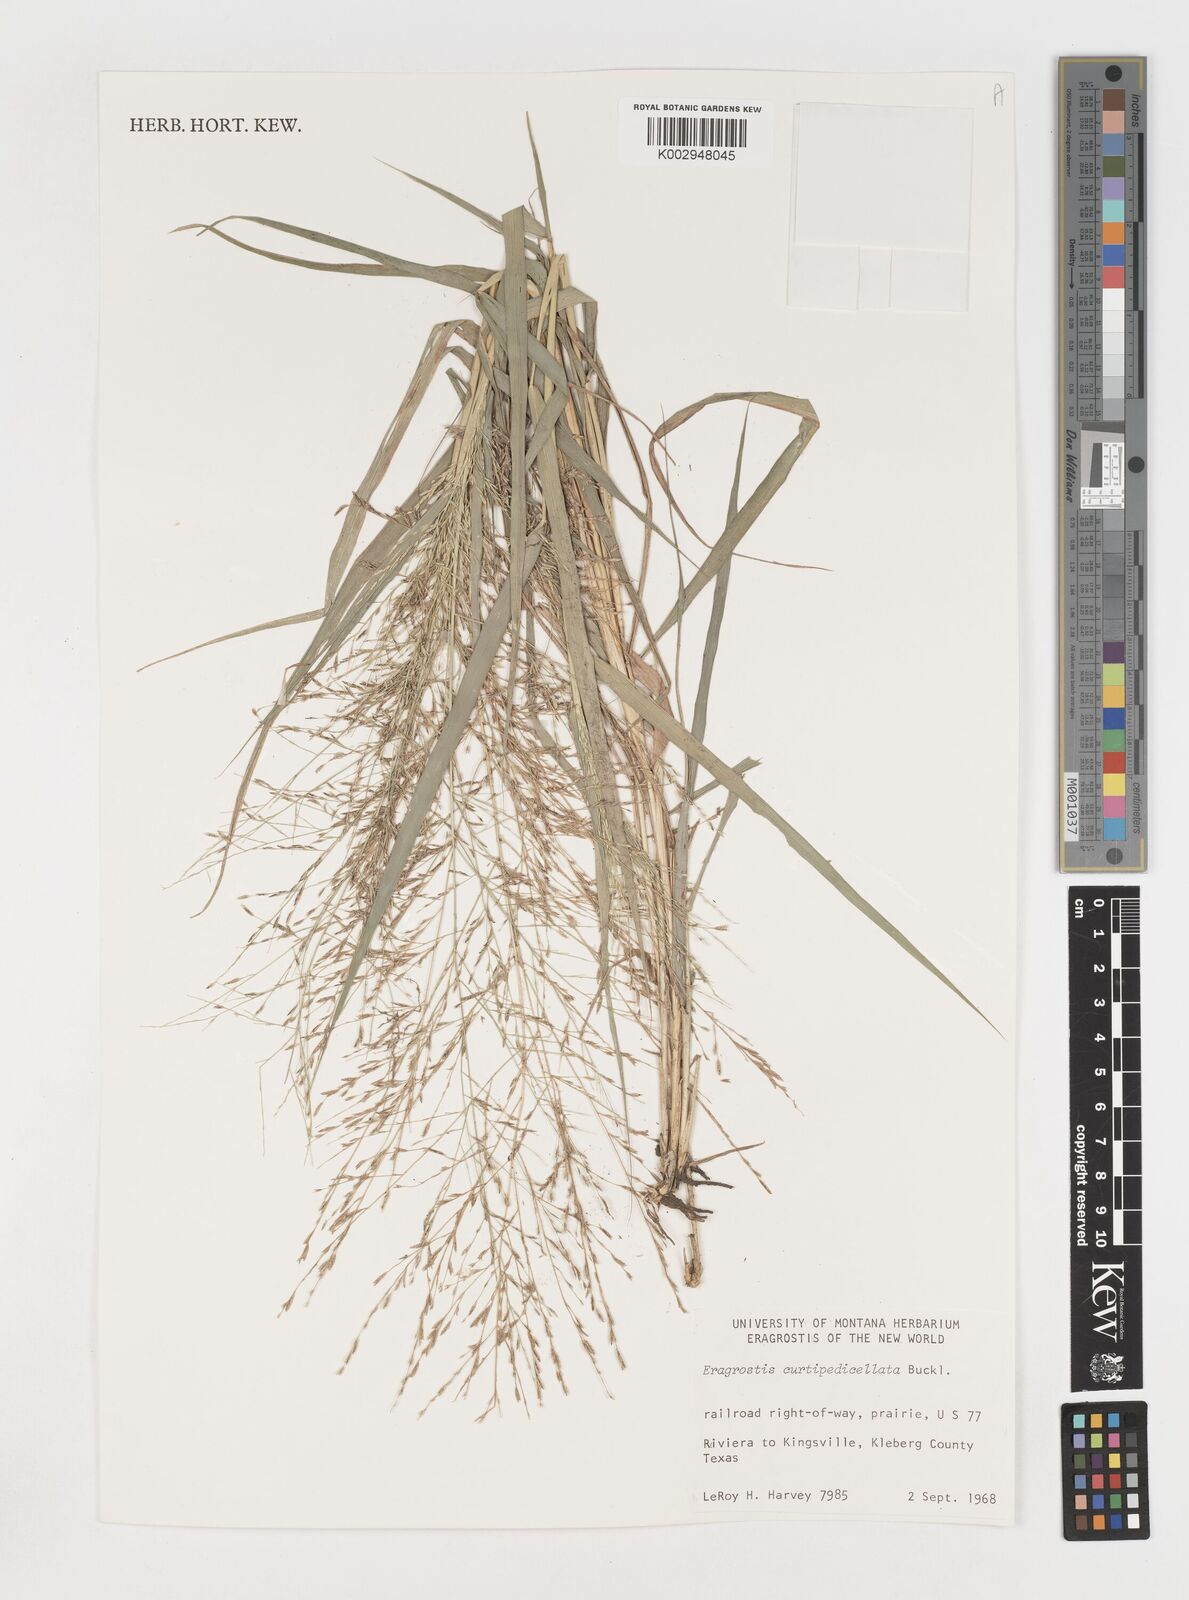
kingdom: Plantae
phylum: Tracheophyta
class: Liliopsida
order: Poales
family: Poaceae
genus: Eragrostis
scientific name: Eragrostis curtipedicellata
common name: Gummy love grass
